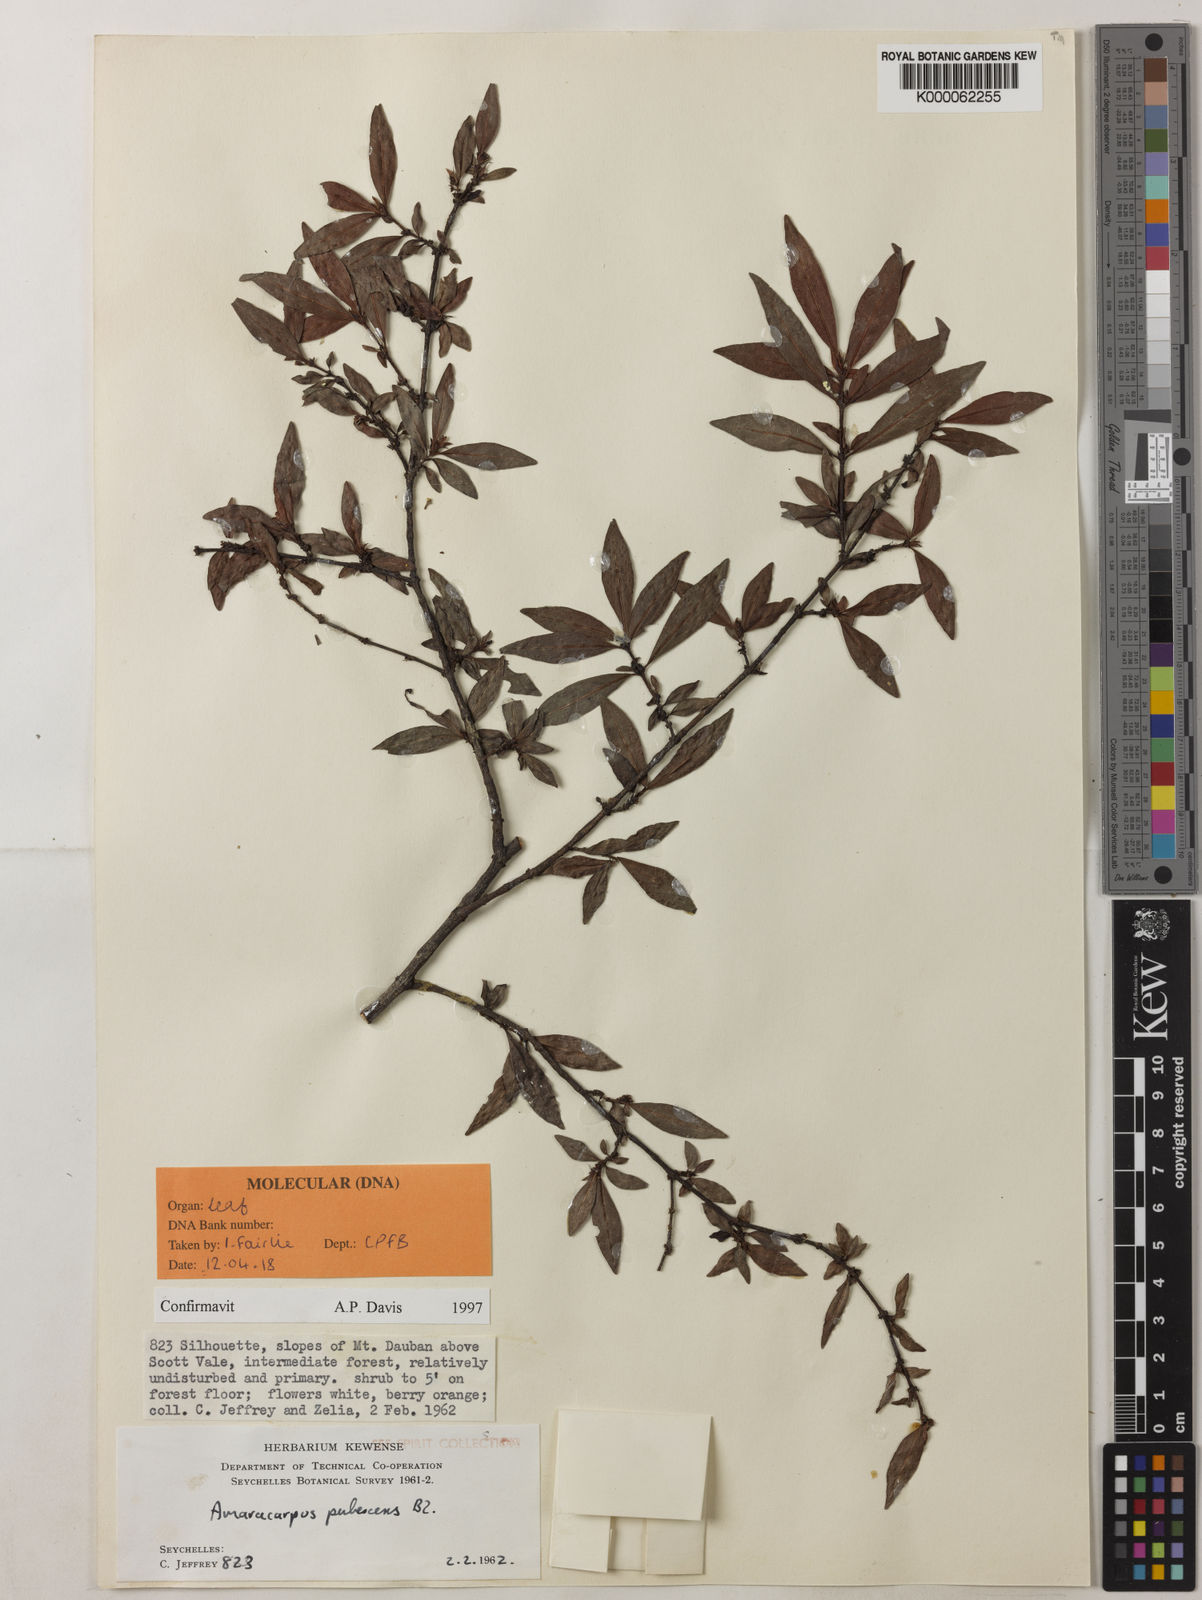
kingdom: Plantae
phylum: Tracheophyta
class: Magnoliopsida
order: Gentianales
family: Rubiaceae
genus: Amaracarpus
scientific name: Amaracarpus pubescens
